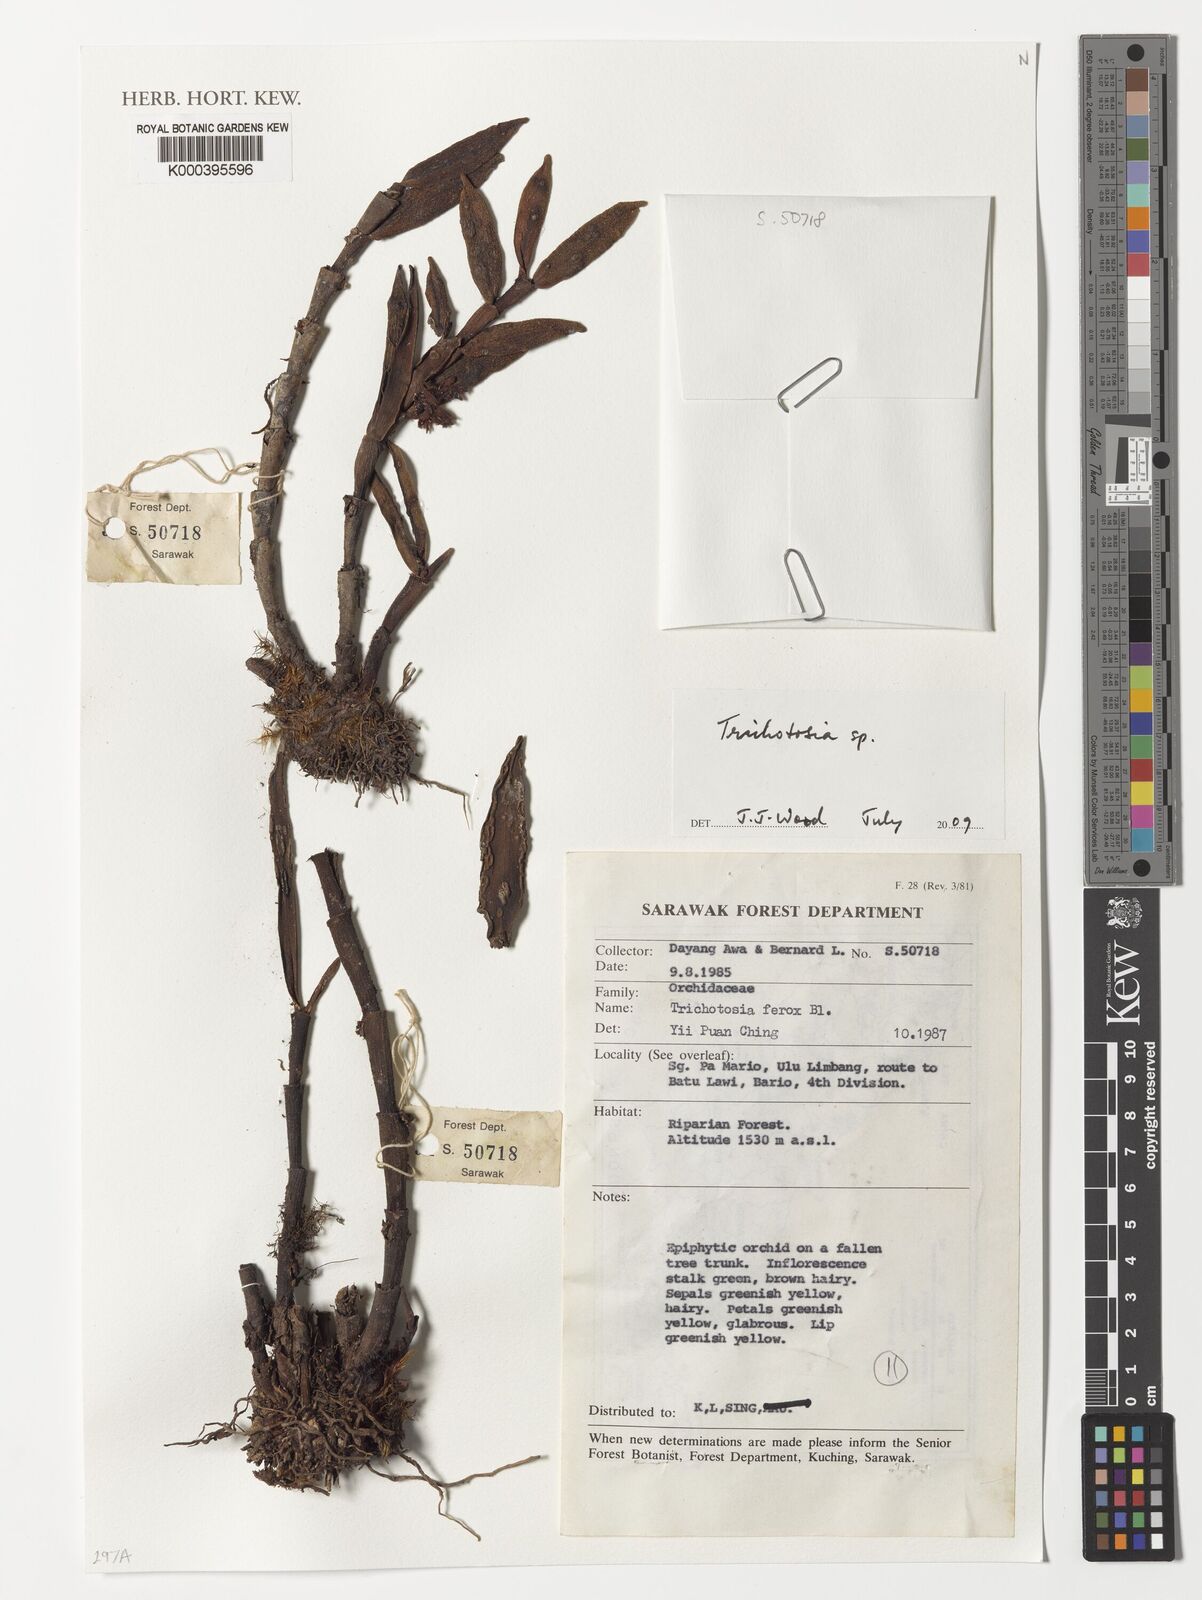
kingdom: Plantae
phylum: Tracheophyta
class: Liliopsida
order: Asparagales
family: Orchidaceae
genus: Trichotosia
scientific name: Trichotosia
